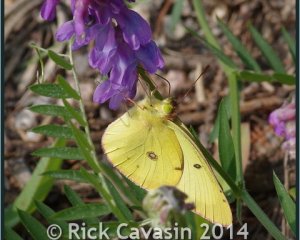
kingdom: Animalia
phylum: Arthropoda
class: Insecta
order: Lepidoptera
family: Pieridae
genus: Colias
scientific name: Colias philodice
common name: Clouded Sulphur
